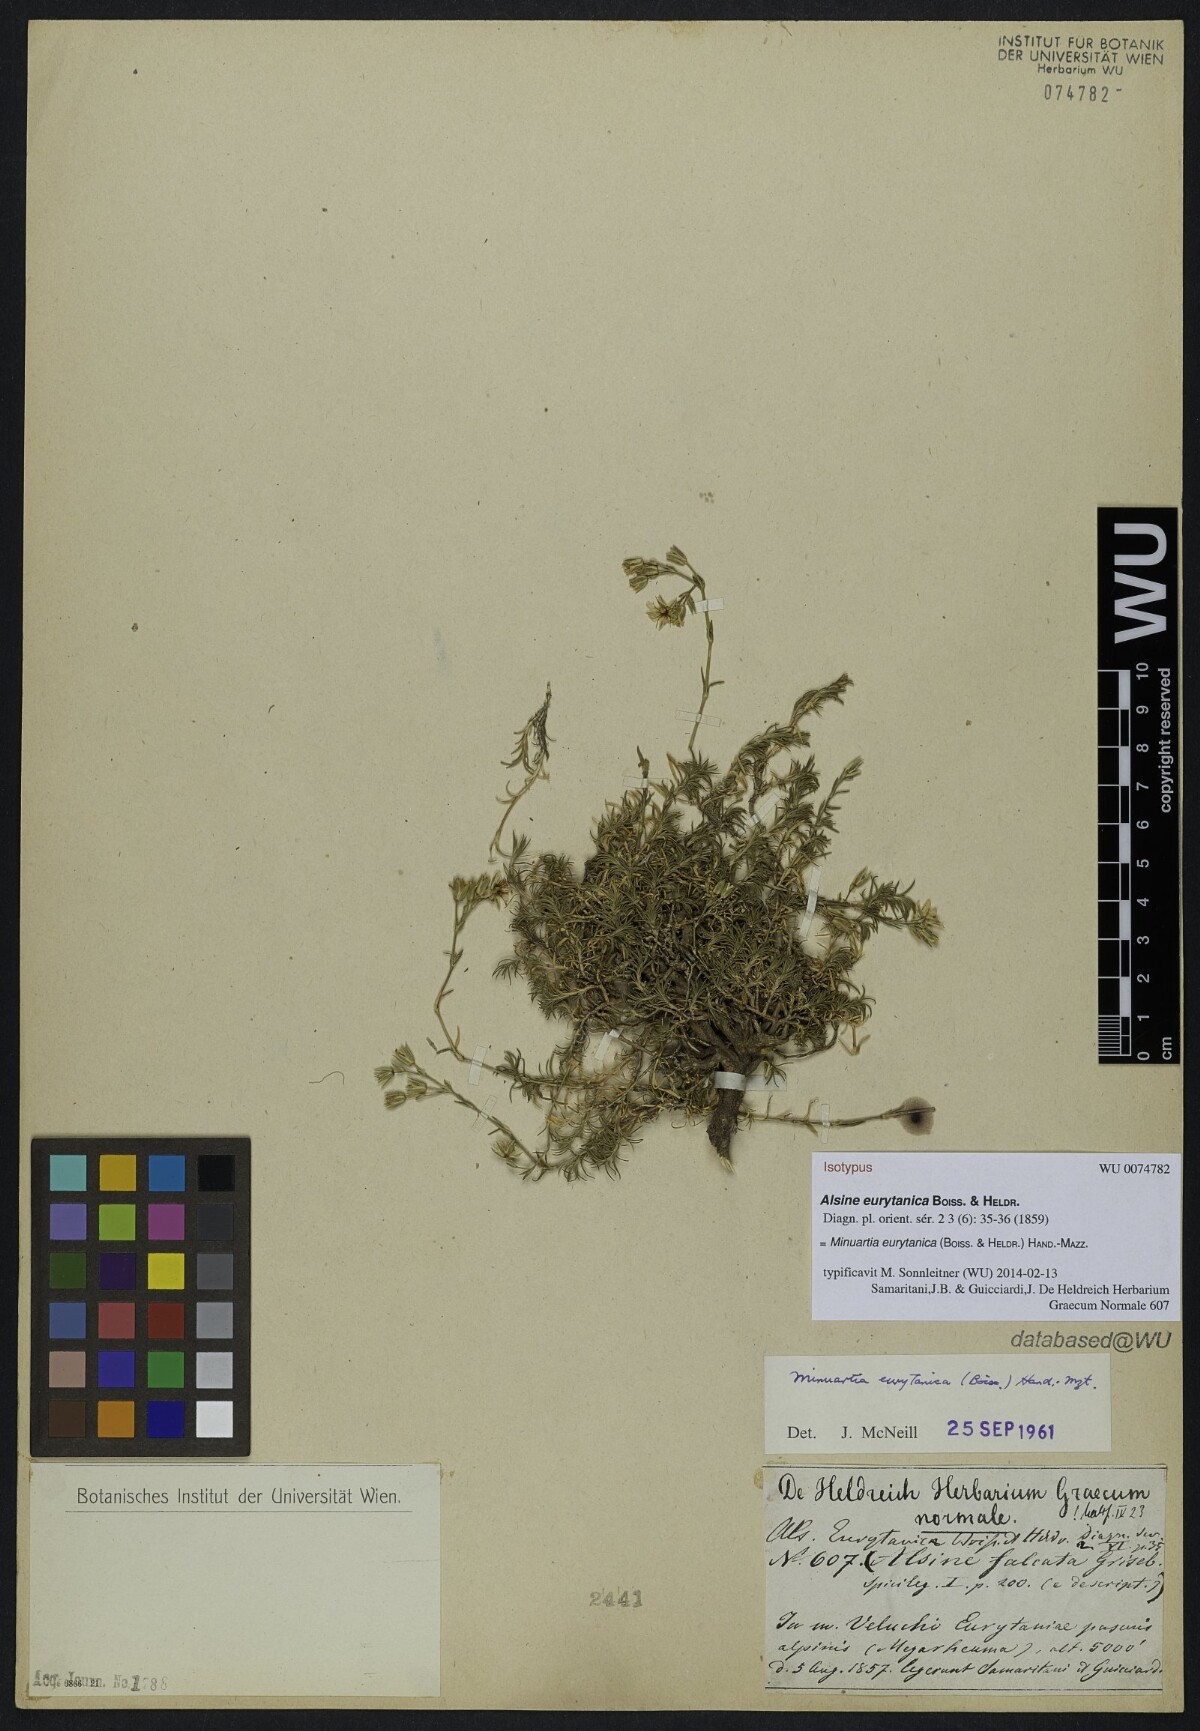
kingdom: Plantae
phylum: Tracheophyta
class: Magnoliopsida
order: Caryophyllales
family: Caryophyllaceae
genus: Minuartia
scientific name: Minuartia eurytanica
